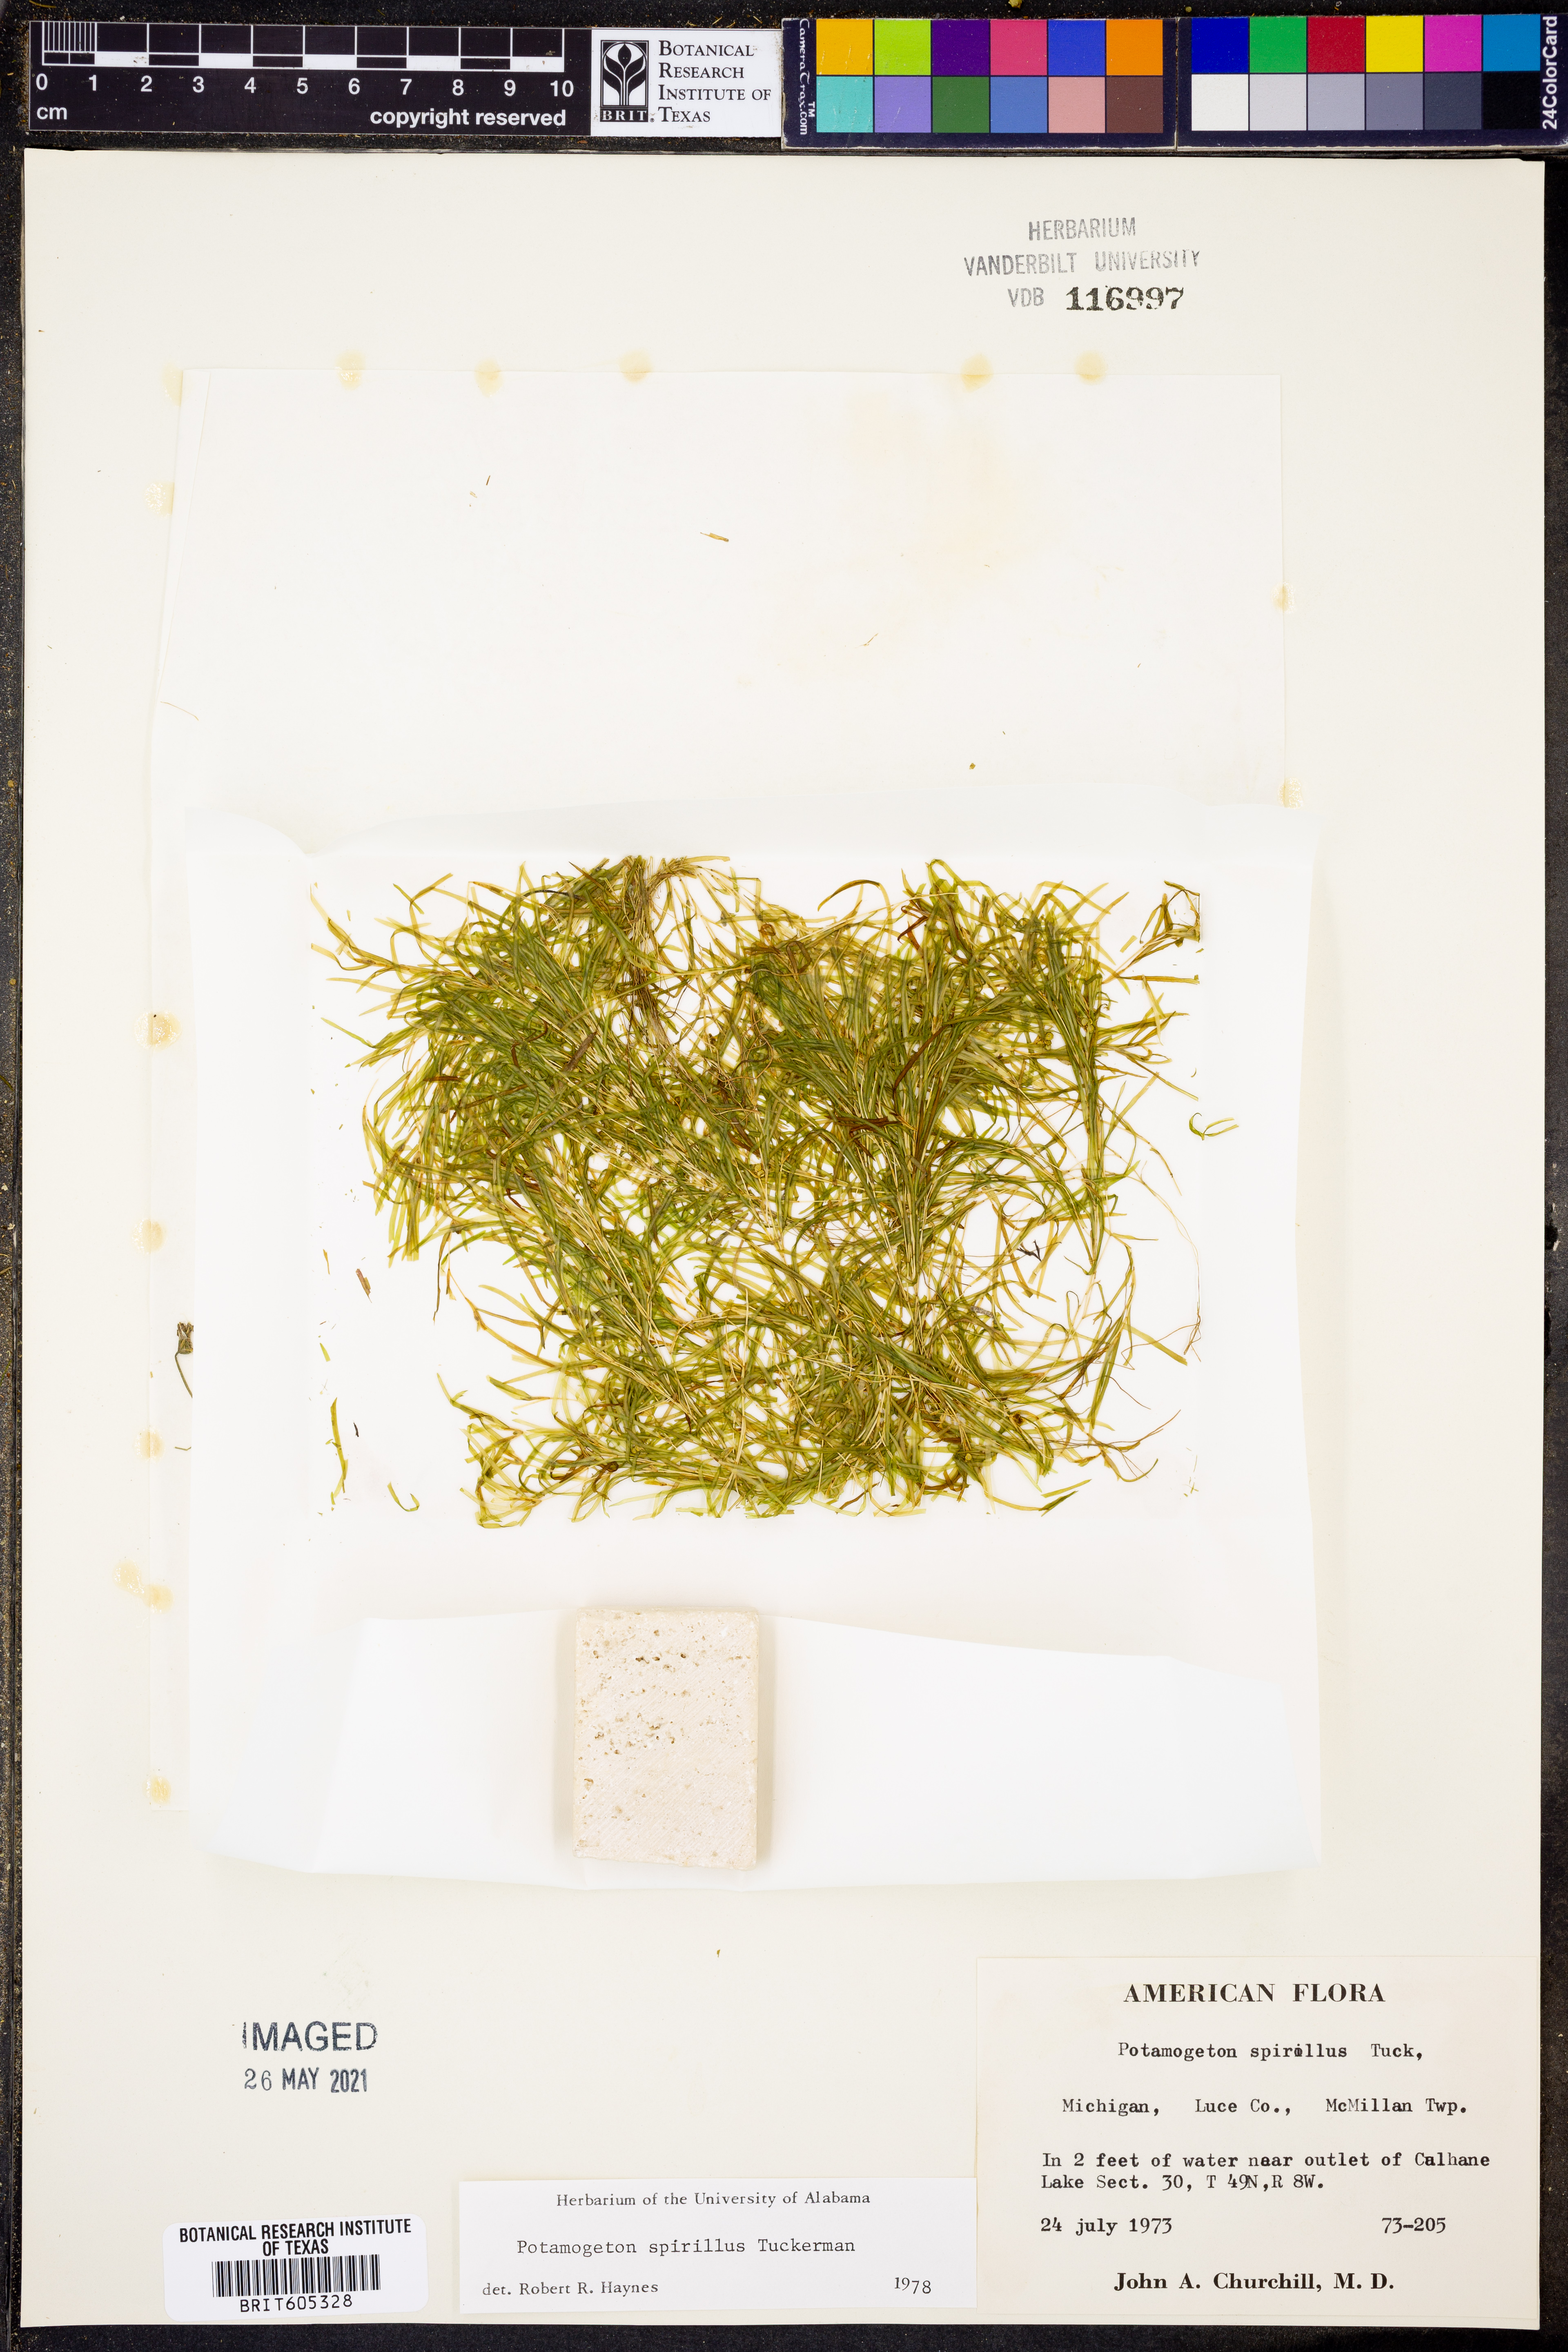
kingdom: Plantae
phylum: Tracheophyta
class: Liliopsida
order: Alismatales
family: Potamogetonaceae
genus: Potamogeton
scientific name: Potamogeton spirillus
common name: Northern snail-seed pondweed
